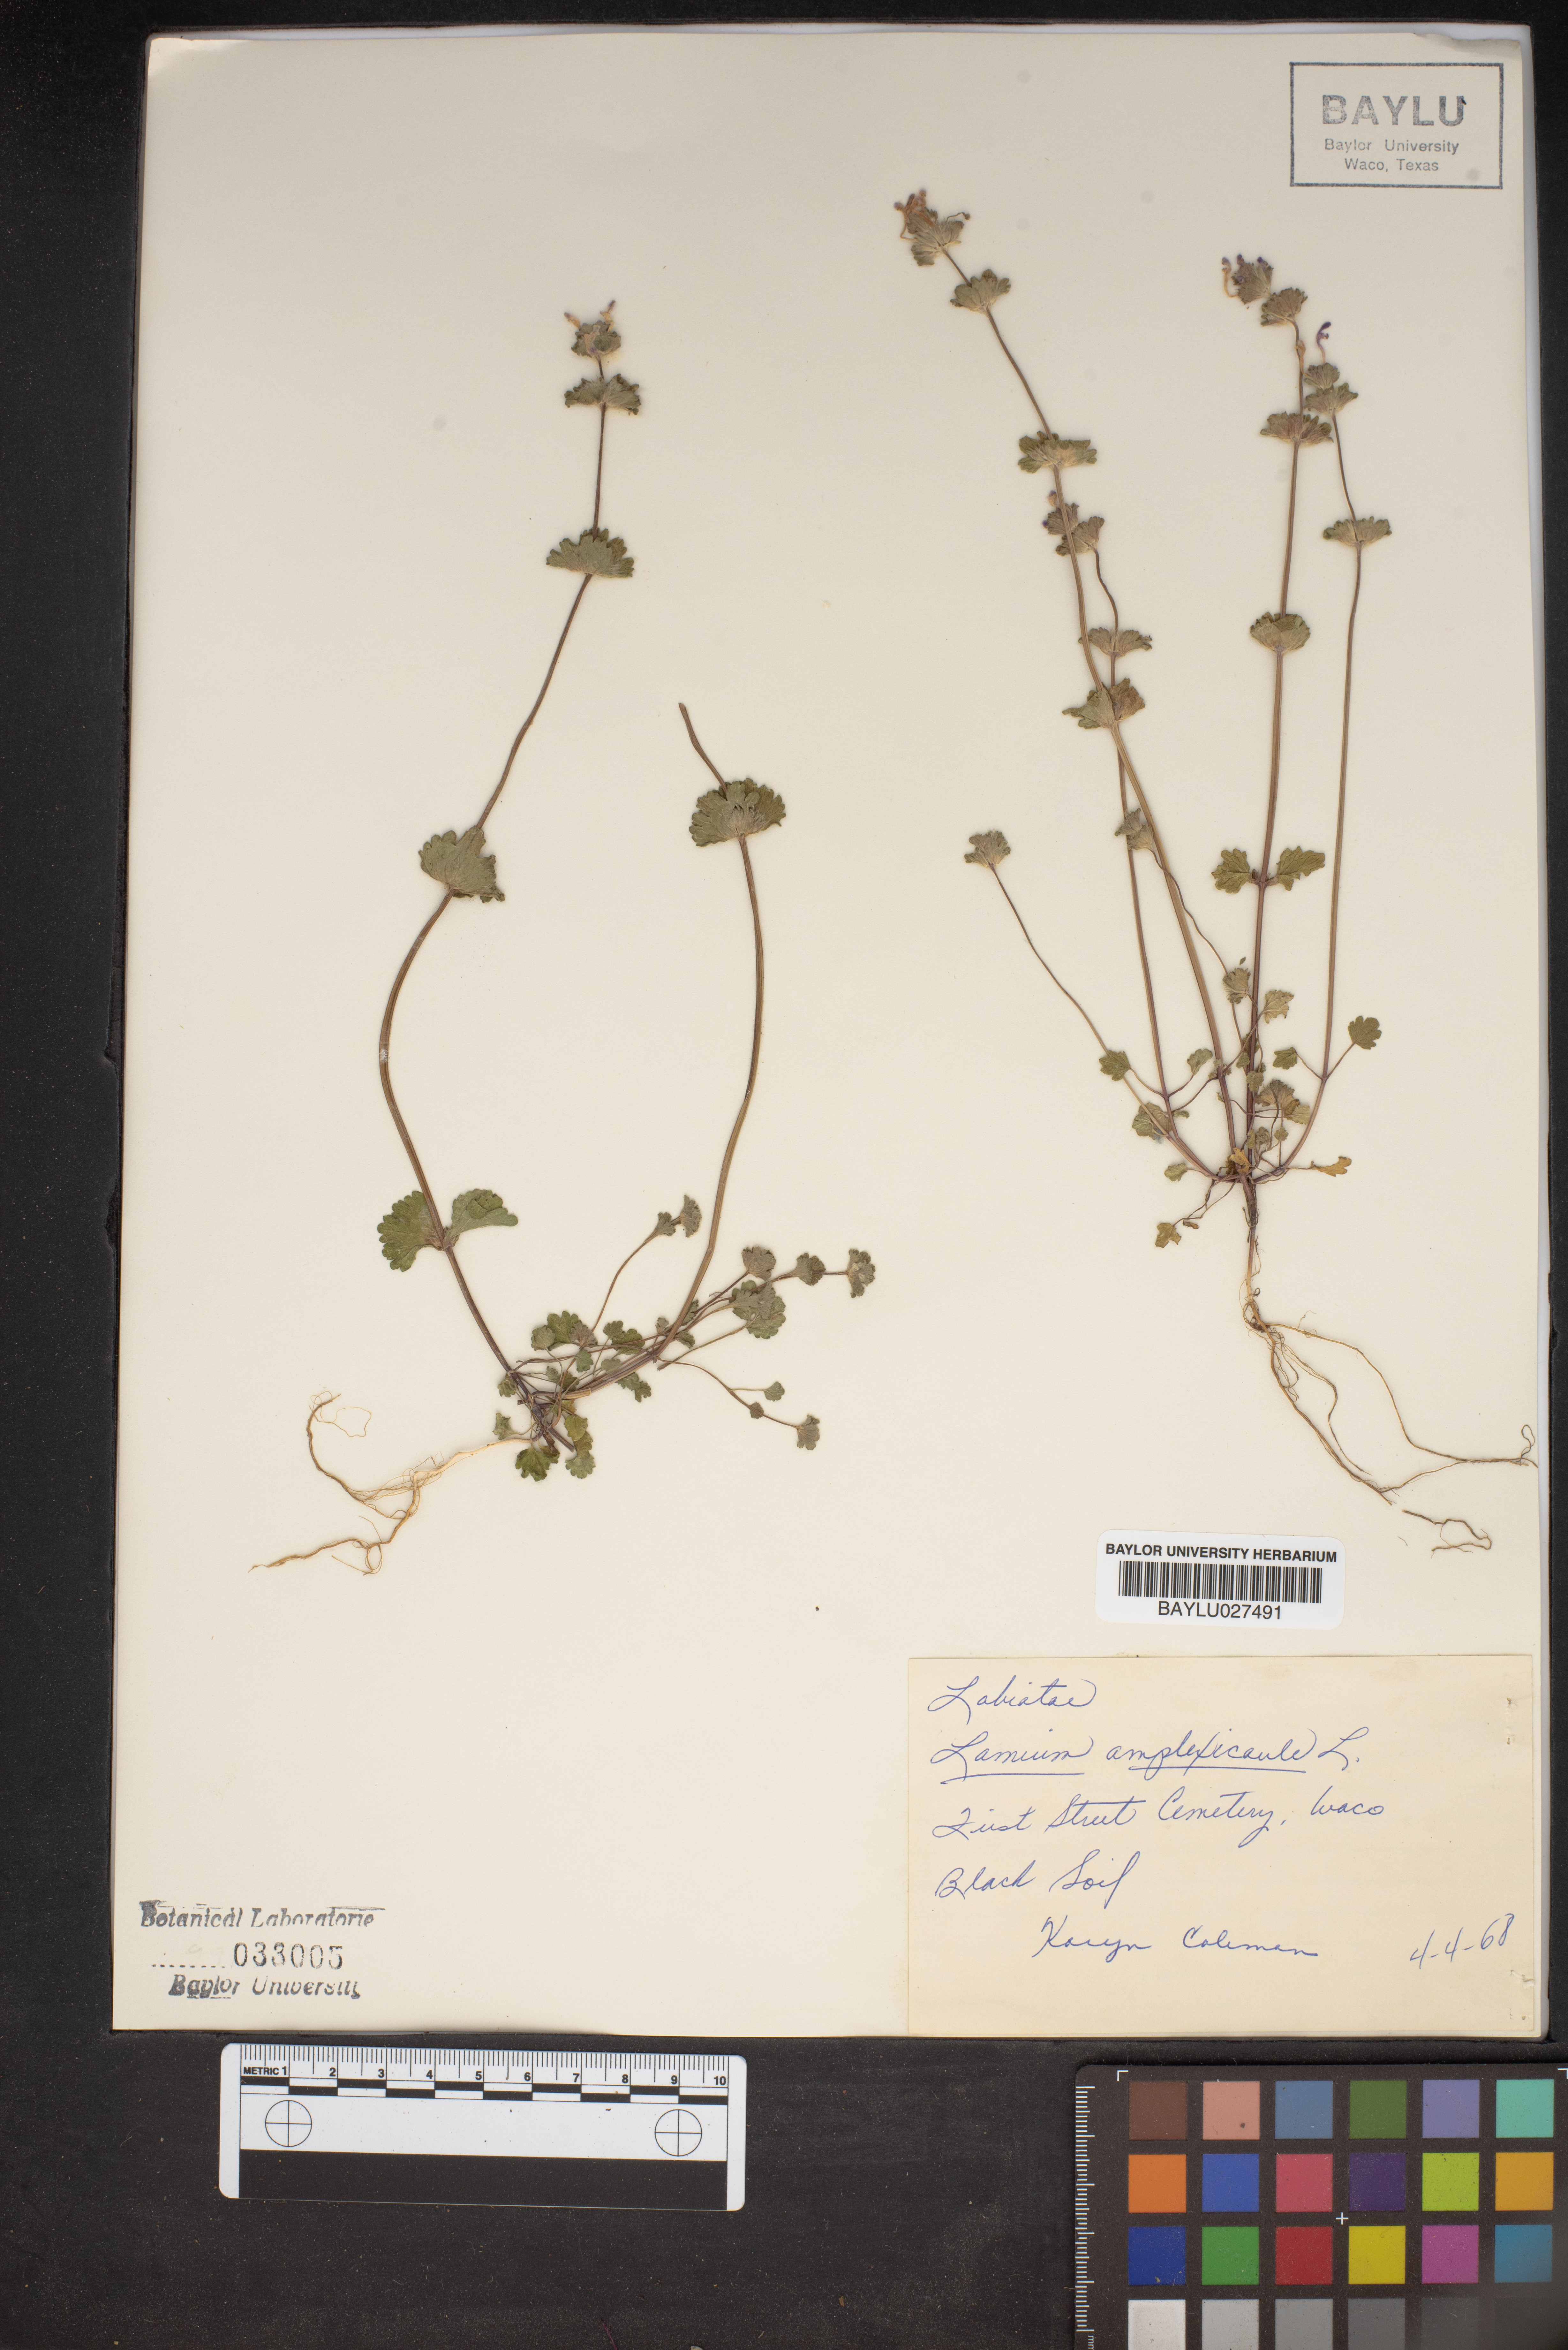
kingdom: Plantae
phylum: Tracheophyta
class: Magnoliopsida
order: Lamiales
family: Lamiaceae
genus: Lamium
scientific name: Lamium amplexicaule
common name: Henbit dead-nettle
